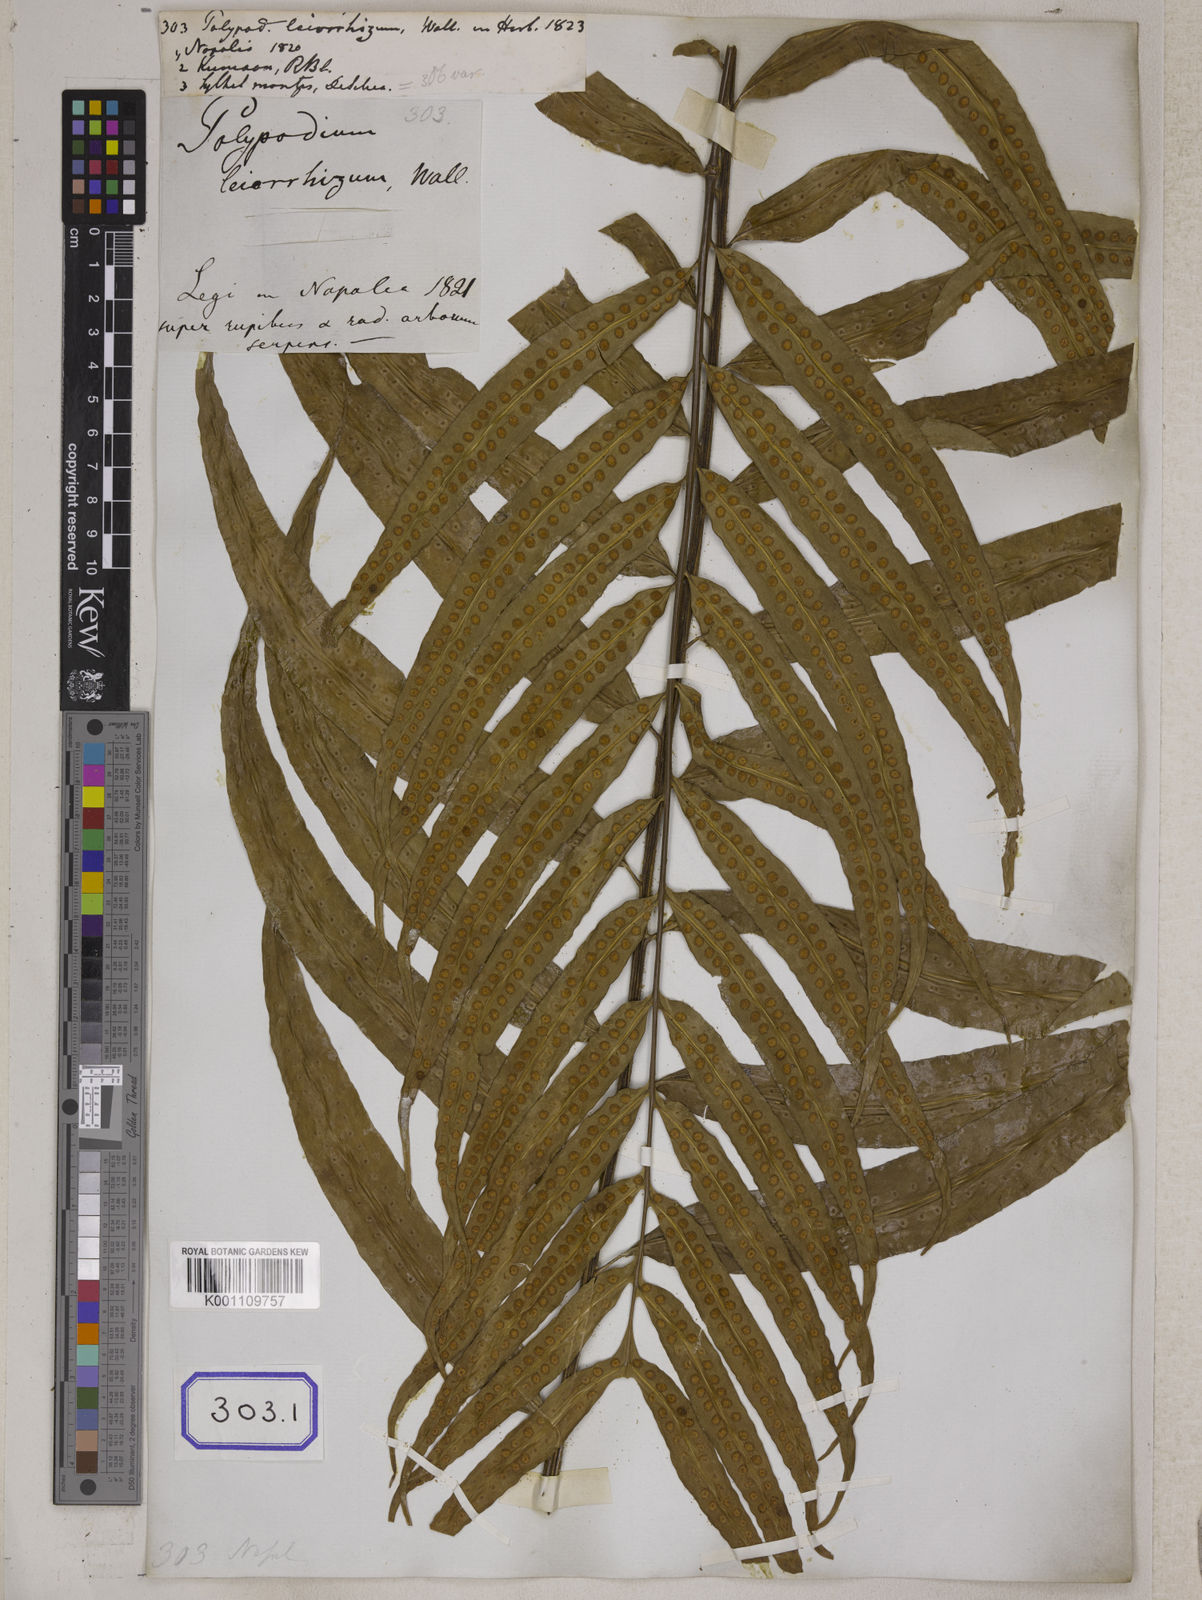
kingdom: Plantae
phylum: Tracheophyta
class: Polypodiopsida
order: Polypodiales
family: Polypodiaceae
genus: Microsorum
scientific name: Microsorum cuspidatum
